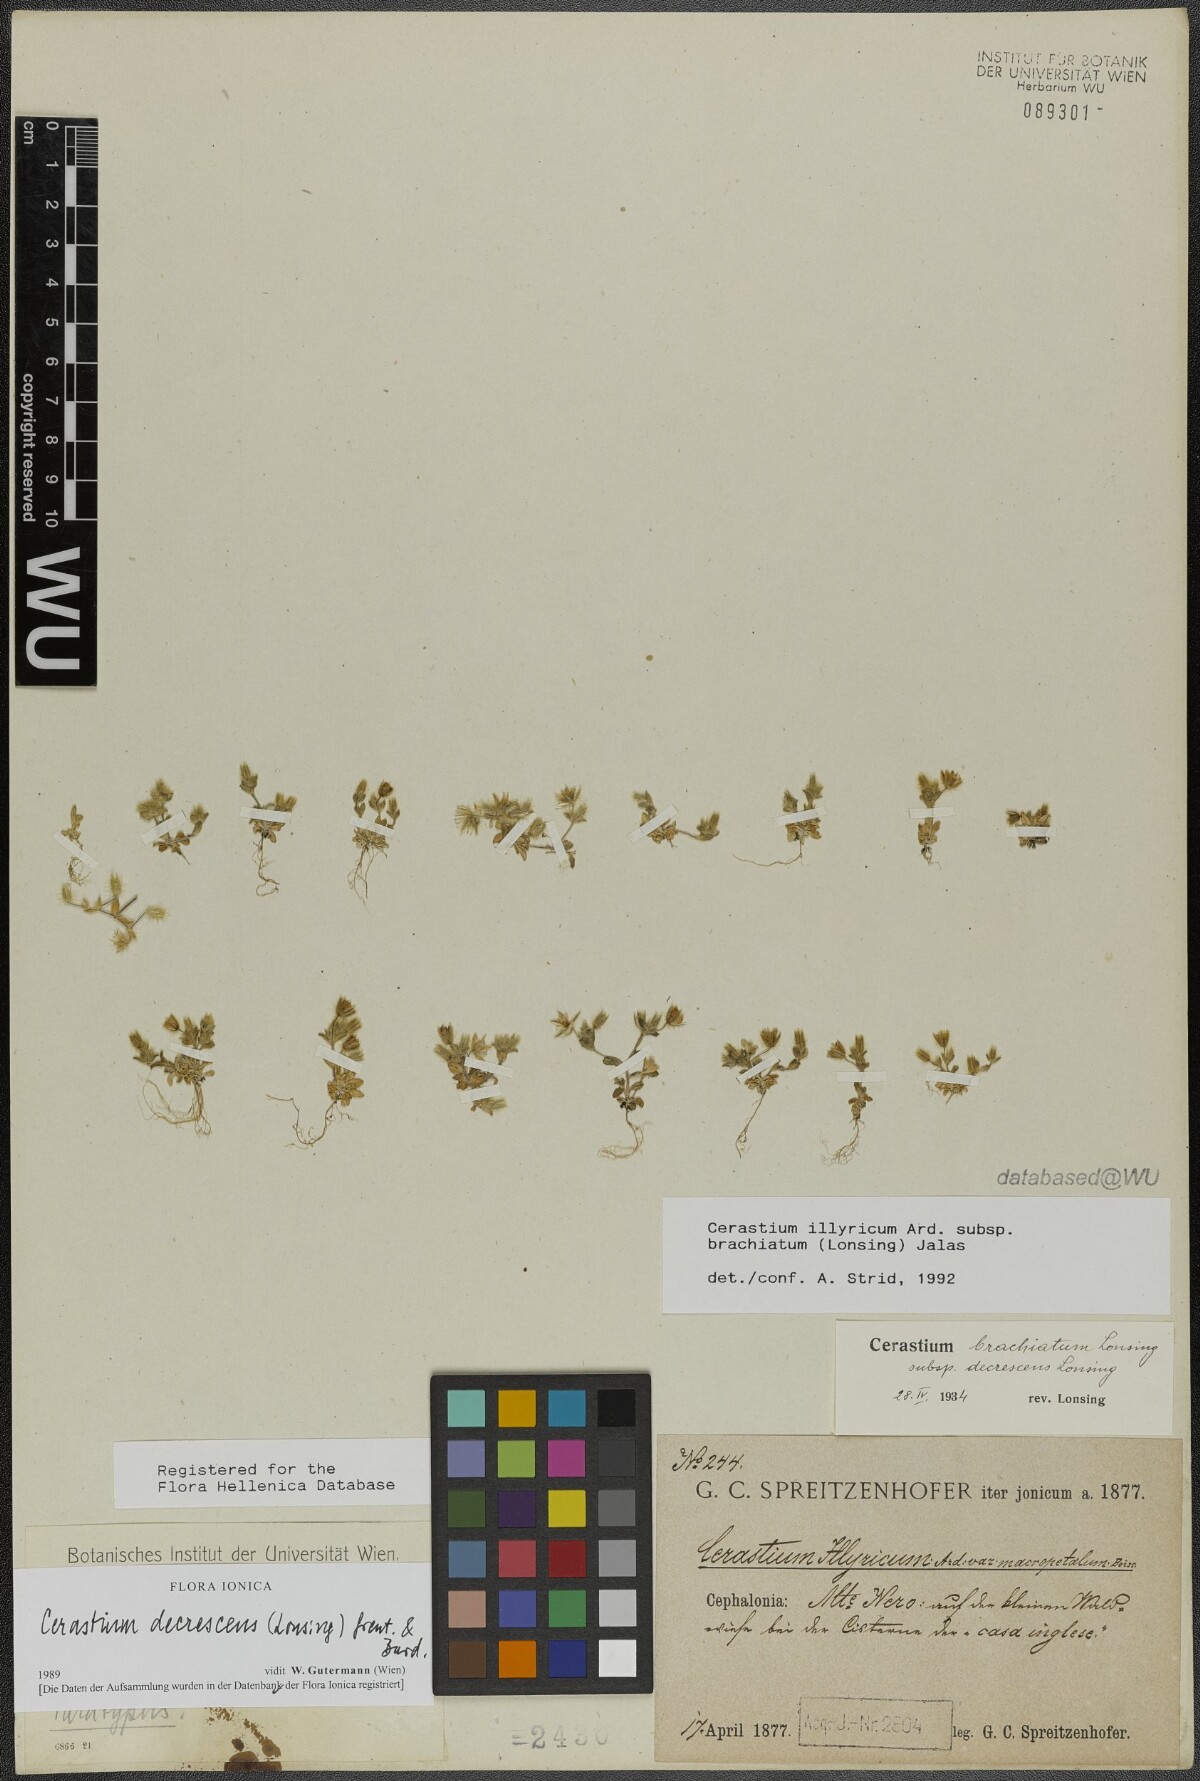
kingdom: Plantae
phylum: Tracheophyta
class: Magnoliopsida
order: Caryophyllales
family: Caryophyllaceae
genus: Cerastium
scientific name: Cerastium illyricum
